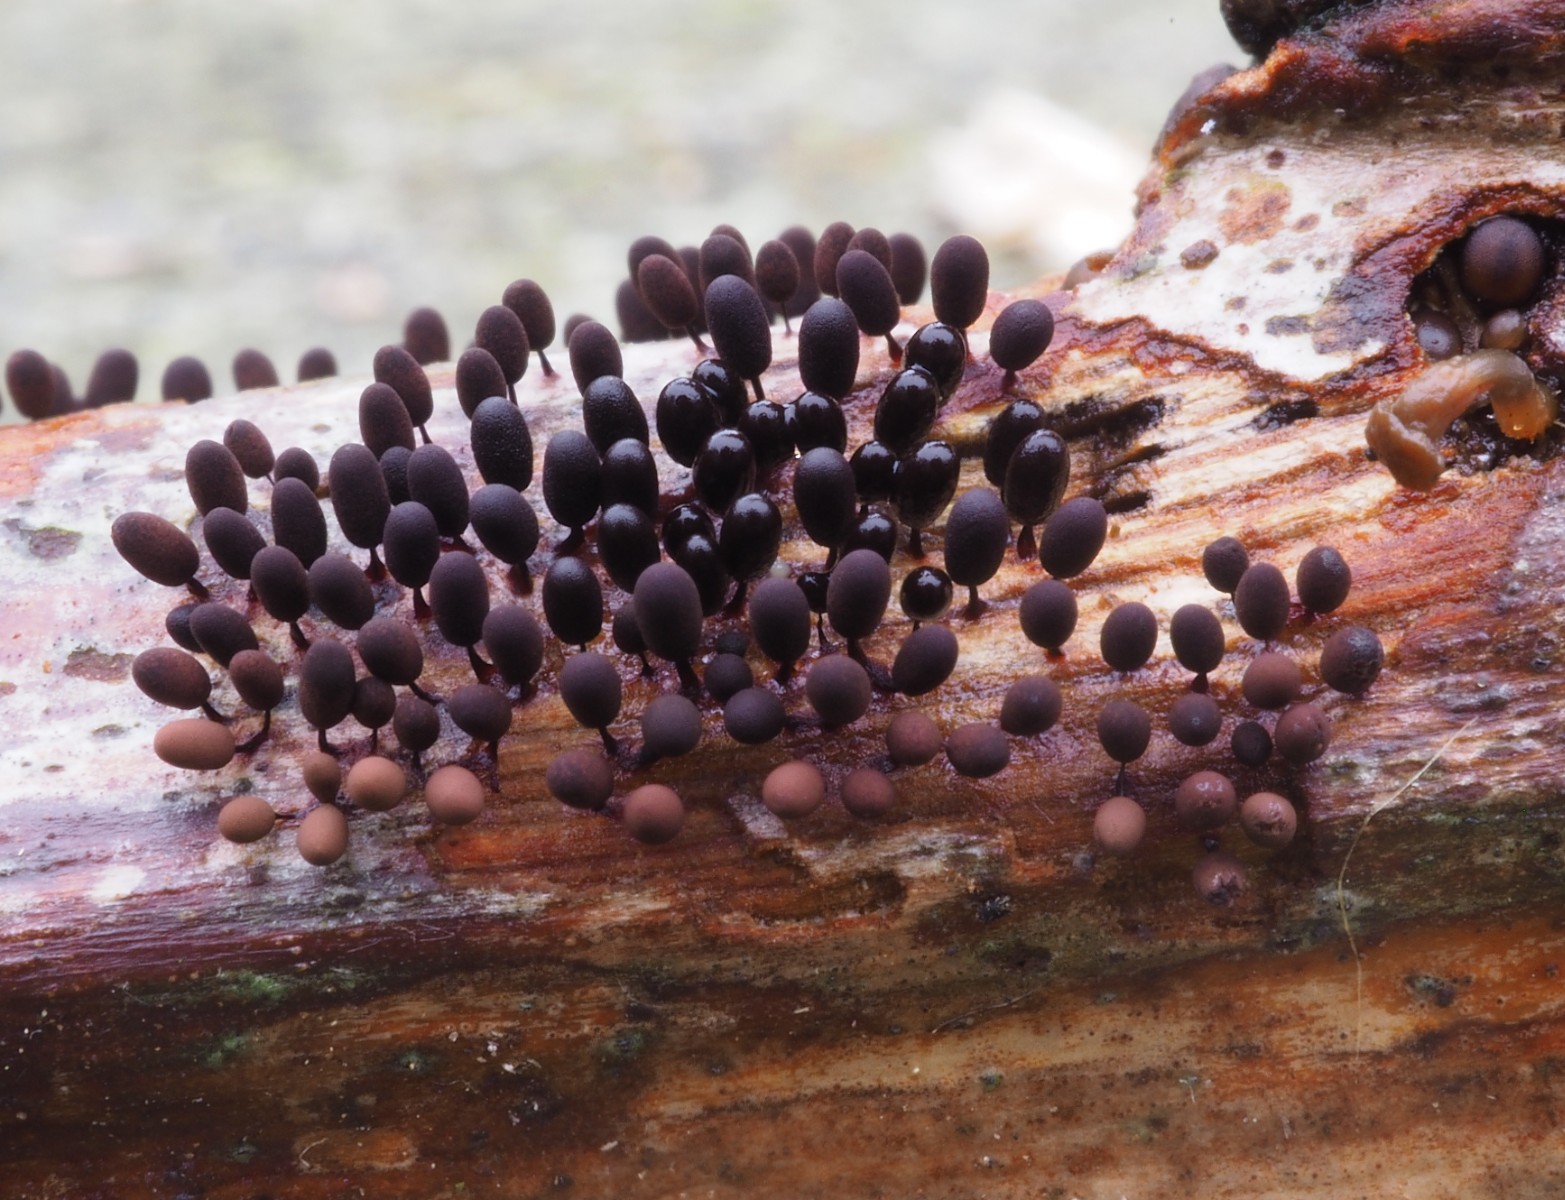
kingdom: Protozoa
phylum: Mycetozoa
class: Myxomycetes
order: Stemonitidales
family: Stemonitidaceae
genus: Comatricha
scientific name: Comatricha
